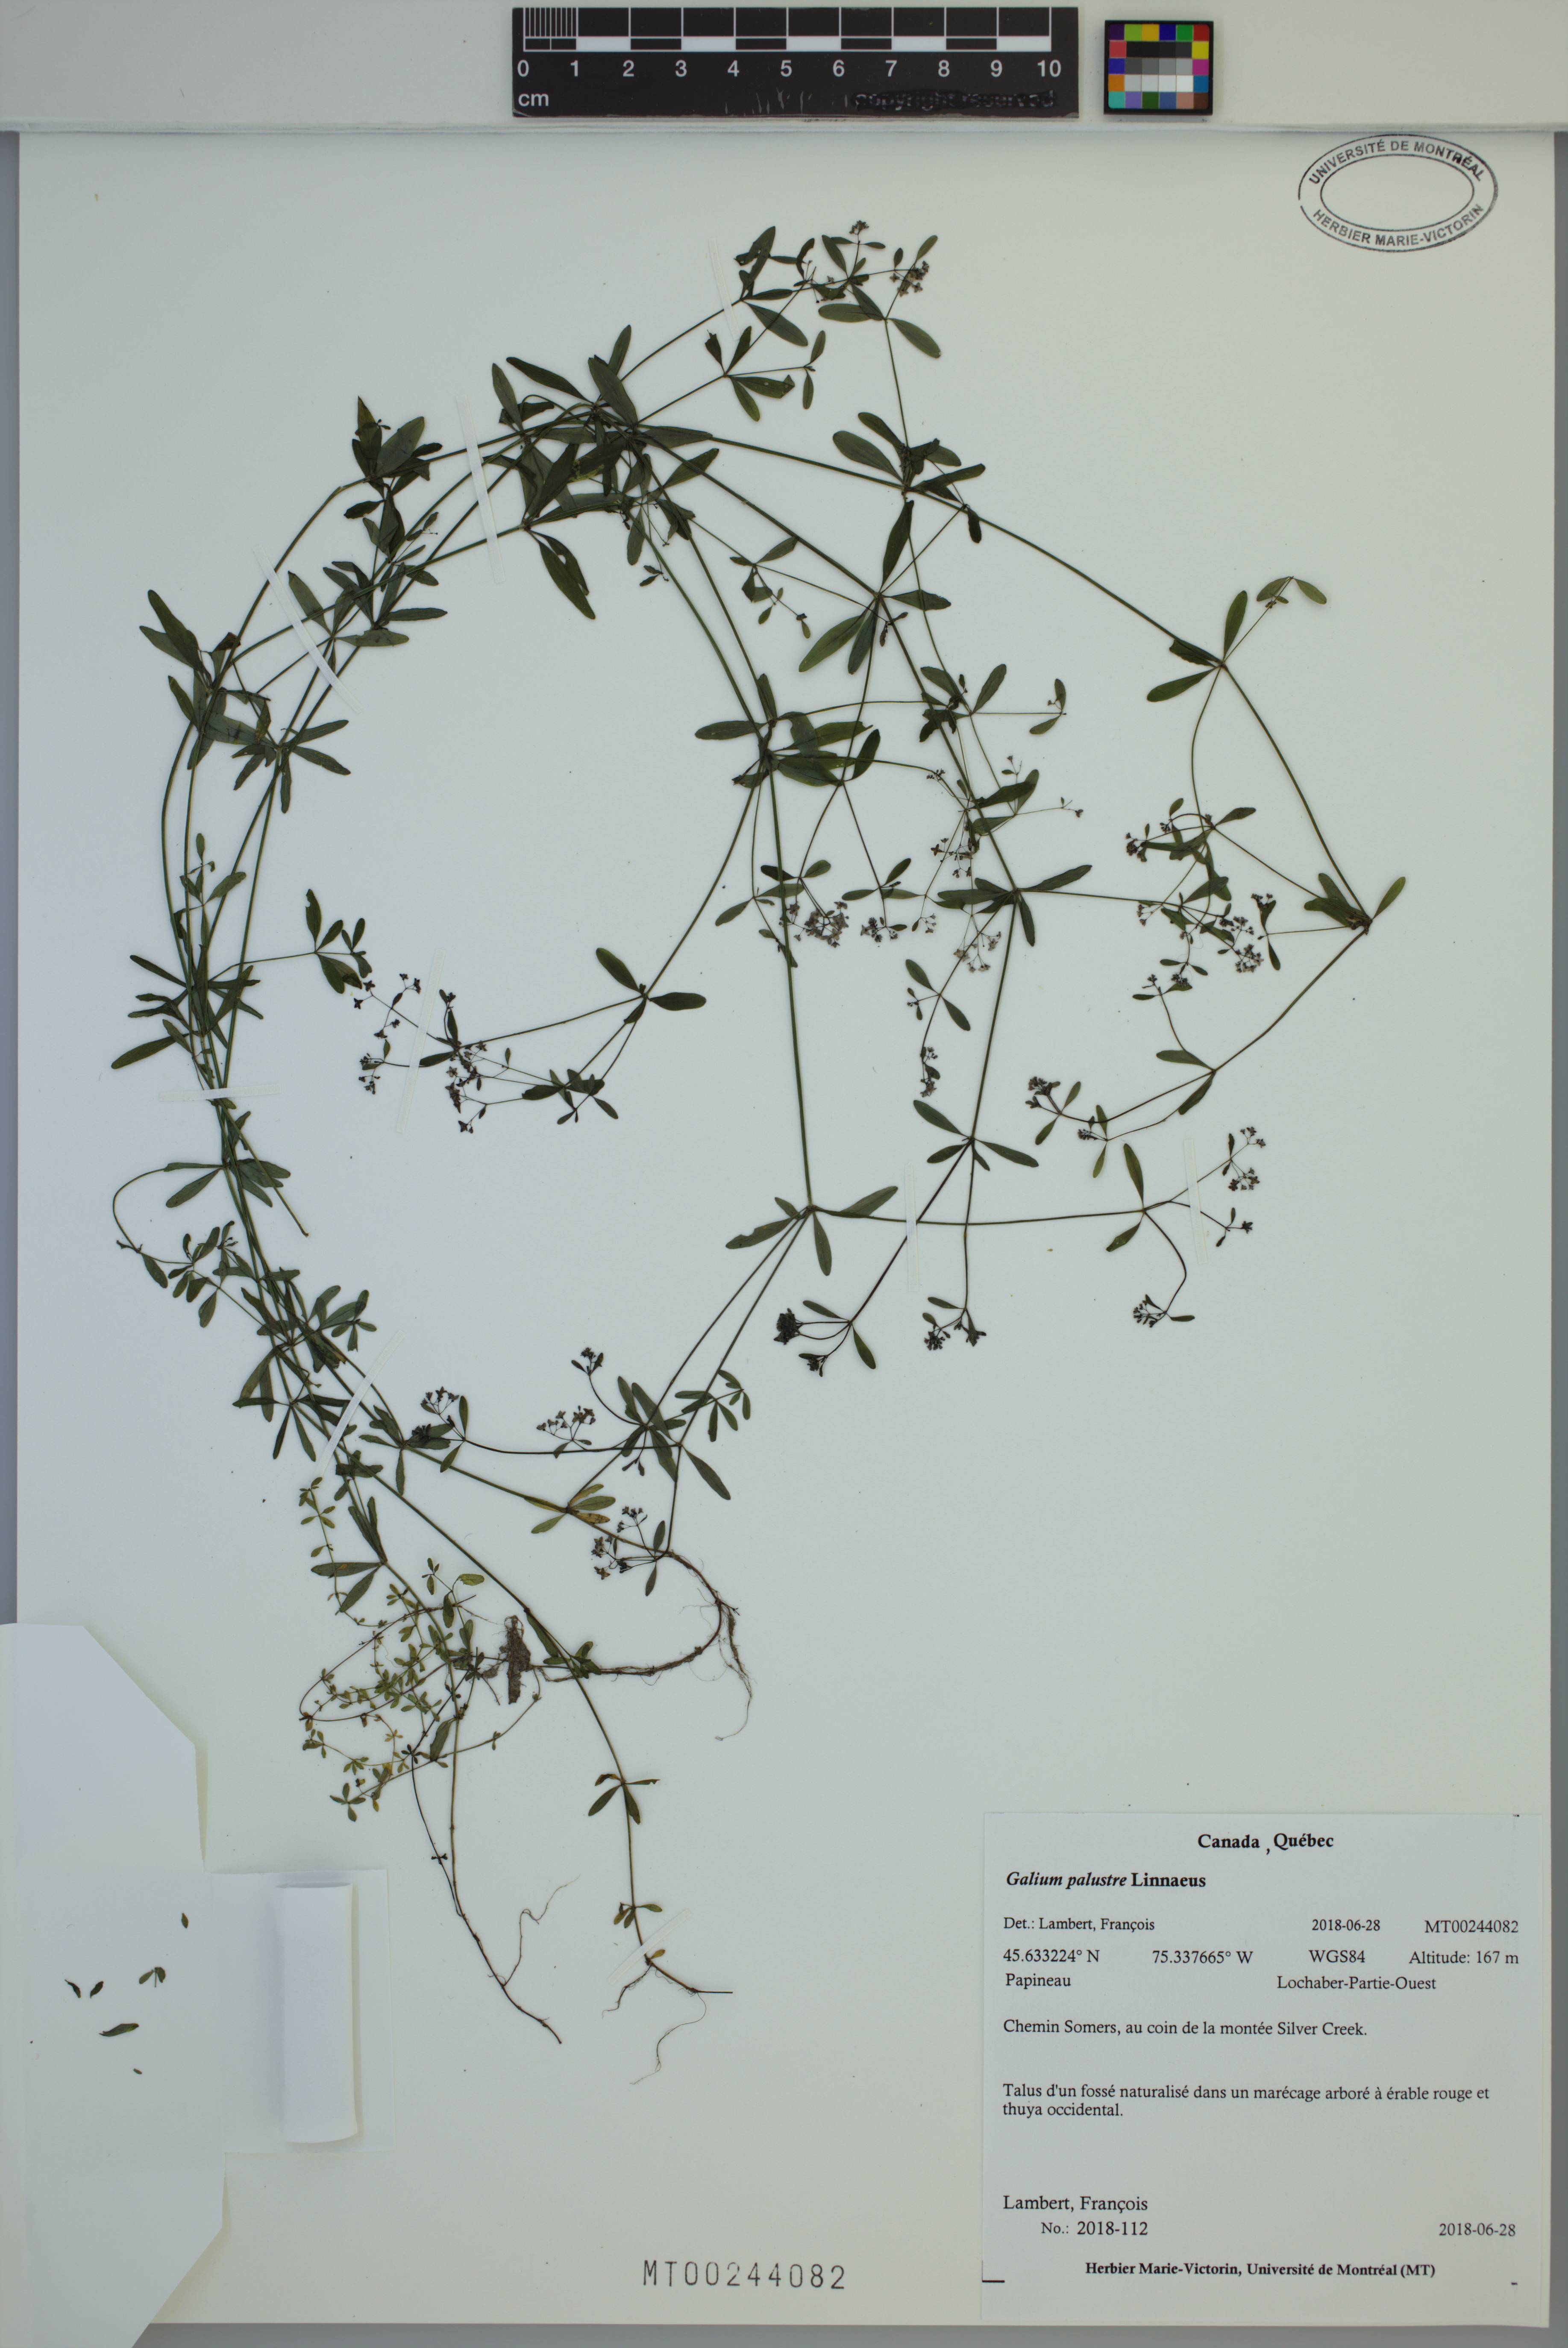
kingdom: Plantae
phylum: Tracheophyta
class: Magnoliopsida
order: Gentianales
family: Rubiaceae
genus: Galium
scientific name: Galium palustre
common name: Common marsh-bedstraw
